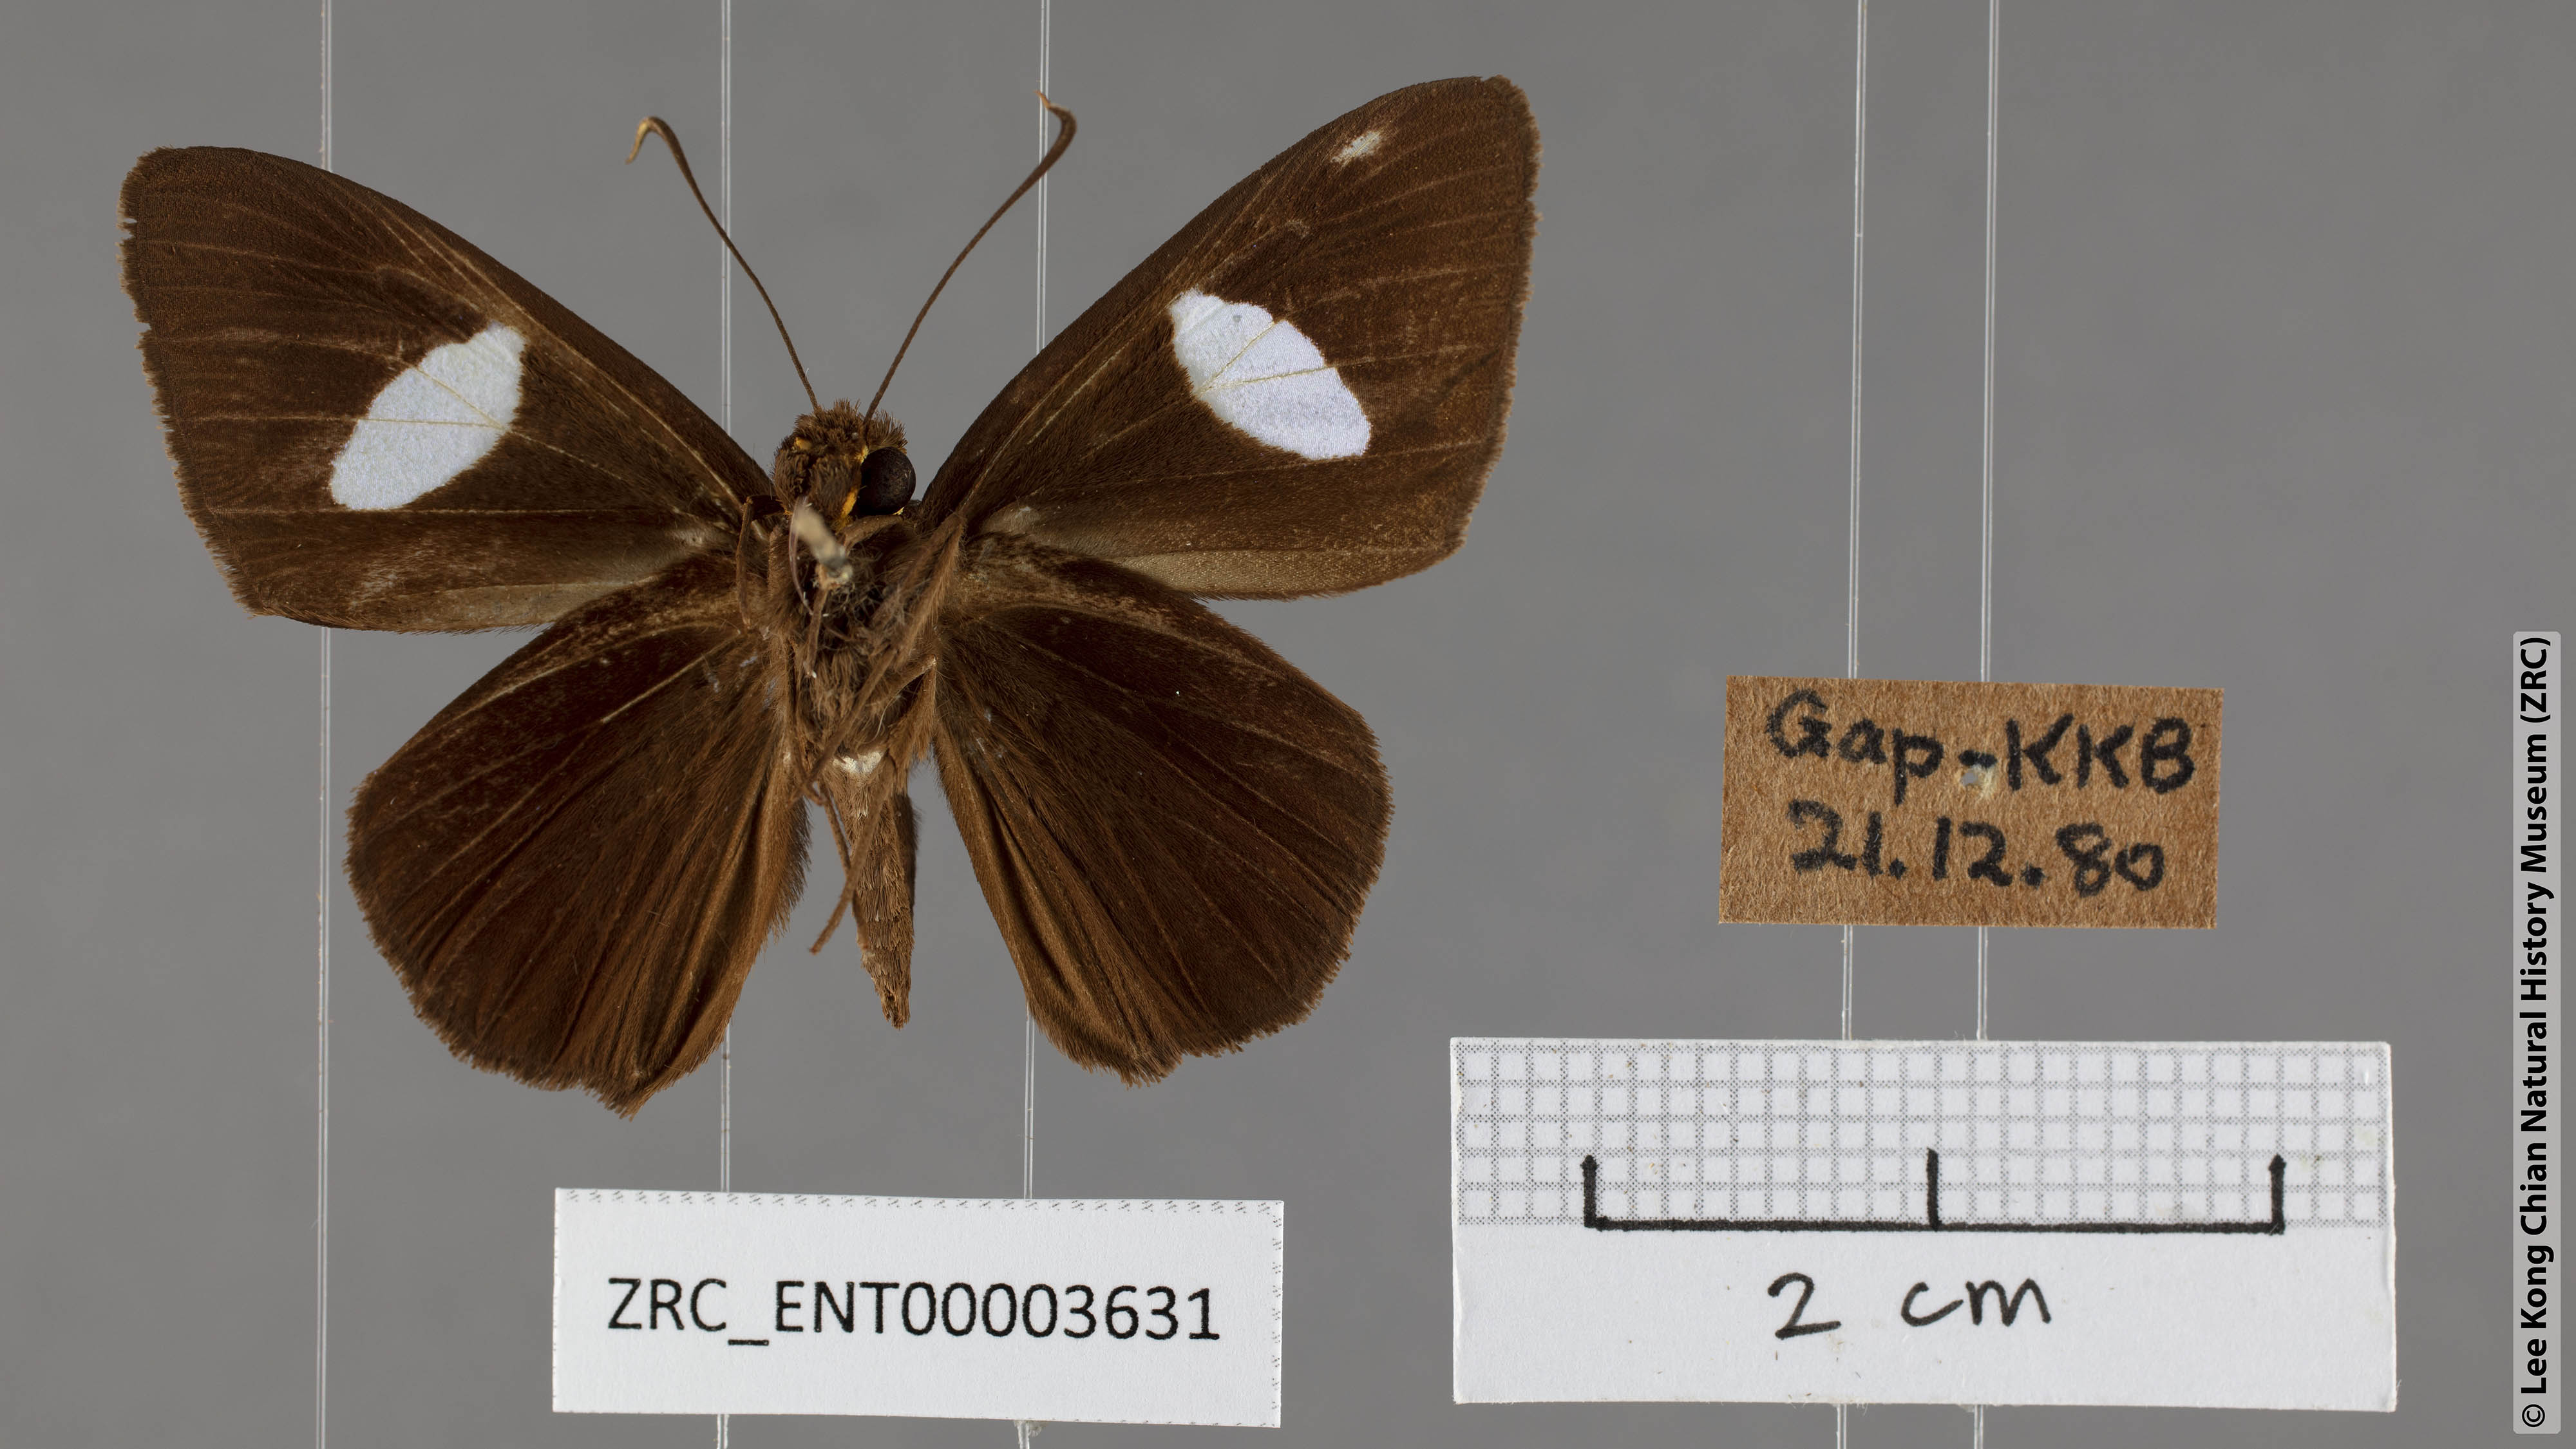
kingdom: Animalia
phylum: Arthropoda
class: Insecta
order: Lepidoptera
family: Hesperiidae
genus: Celaenorrhinus
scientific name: Celaenorrhinus ficulnea
